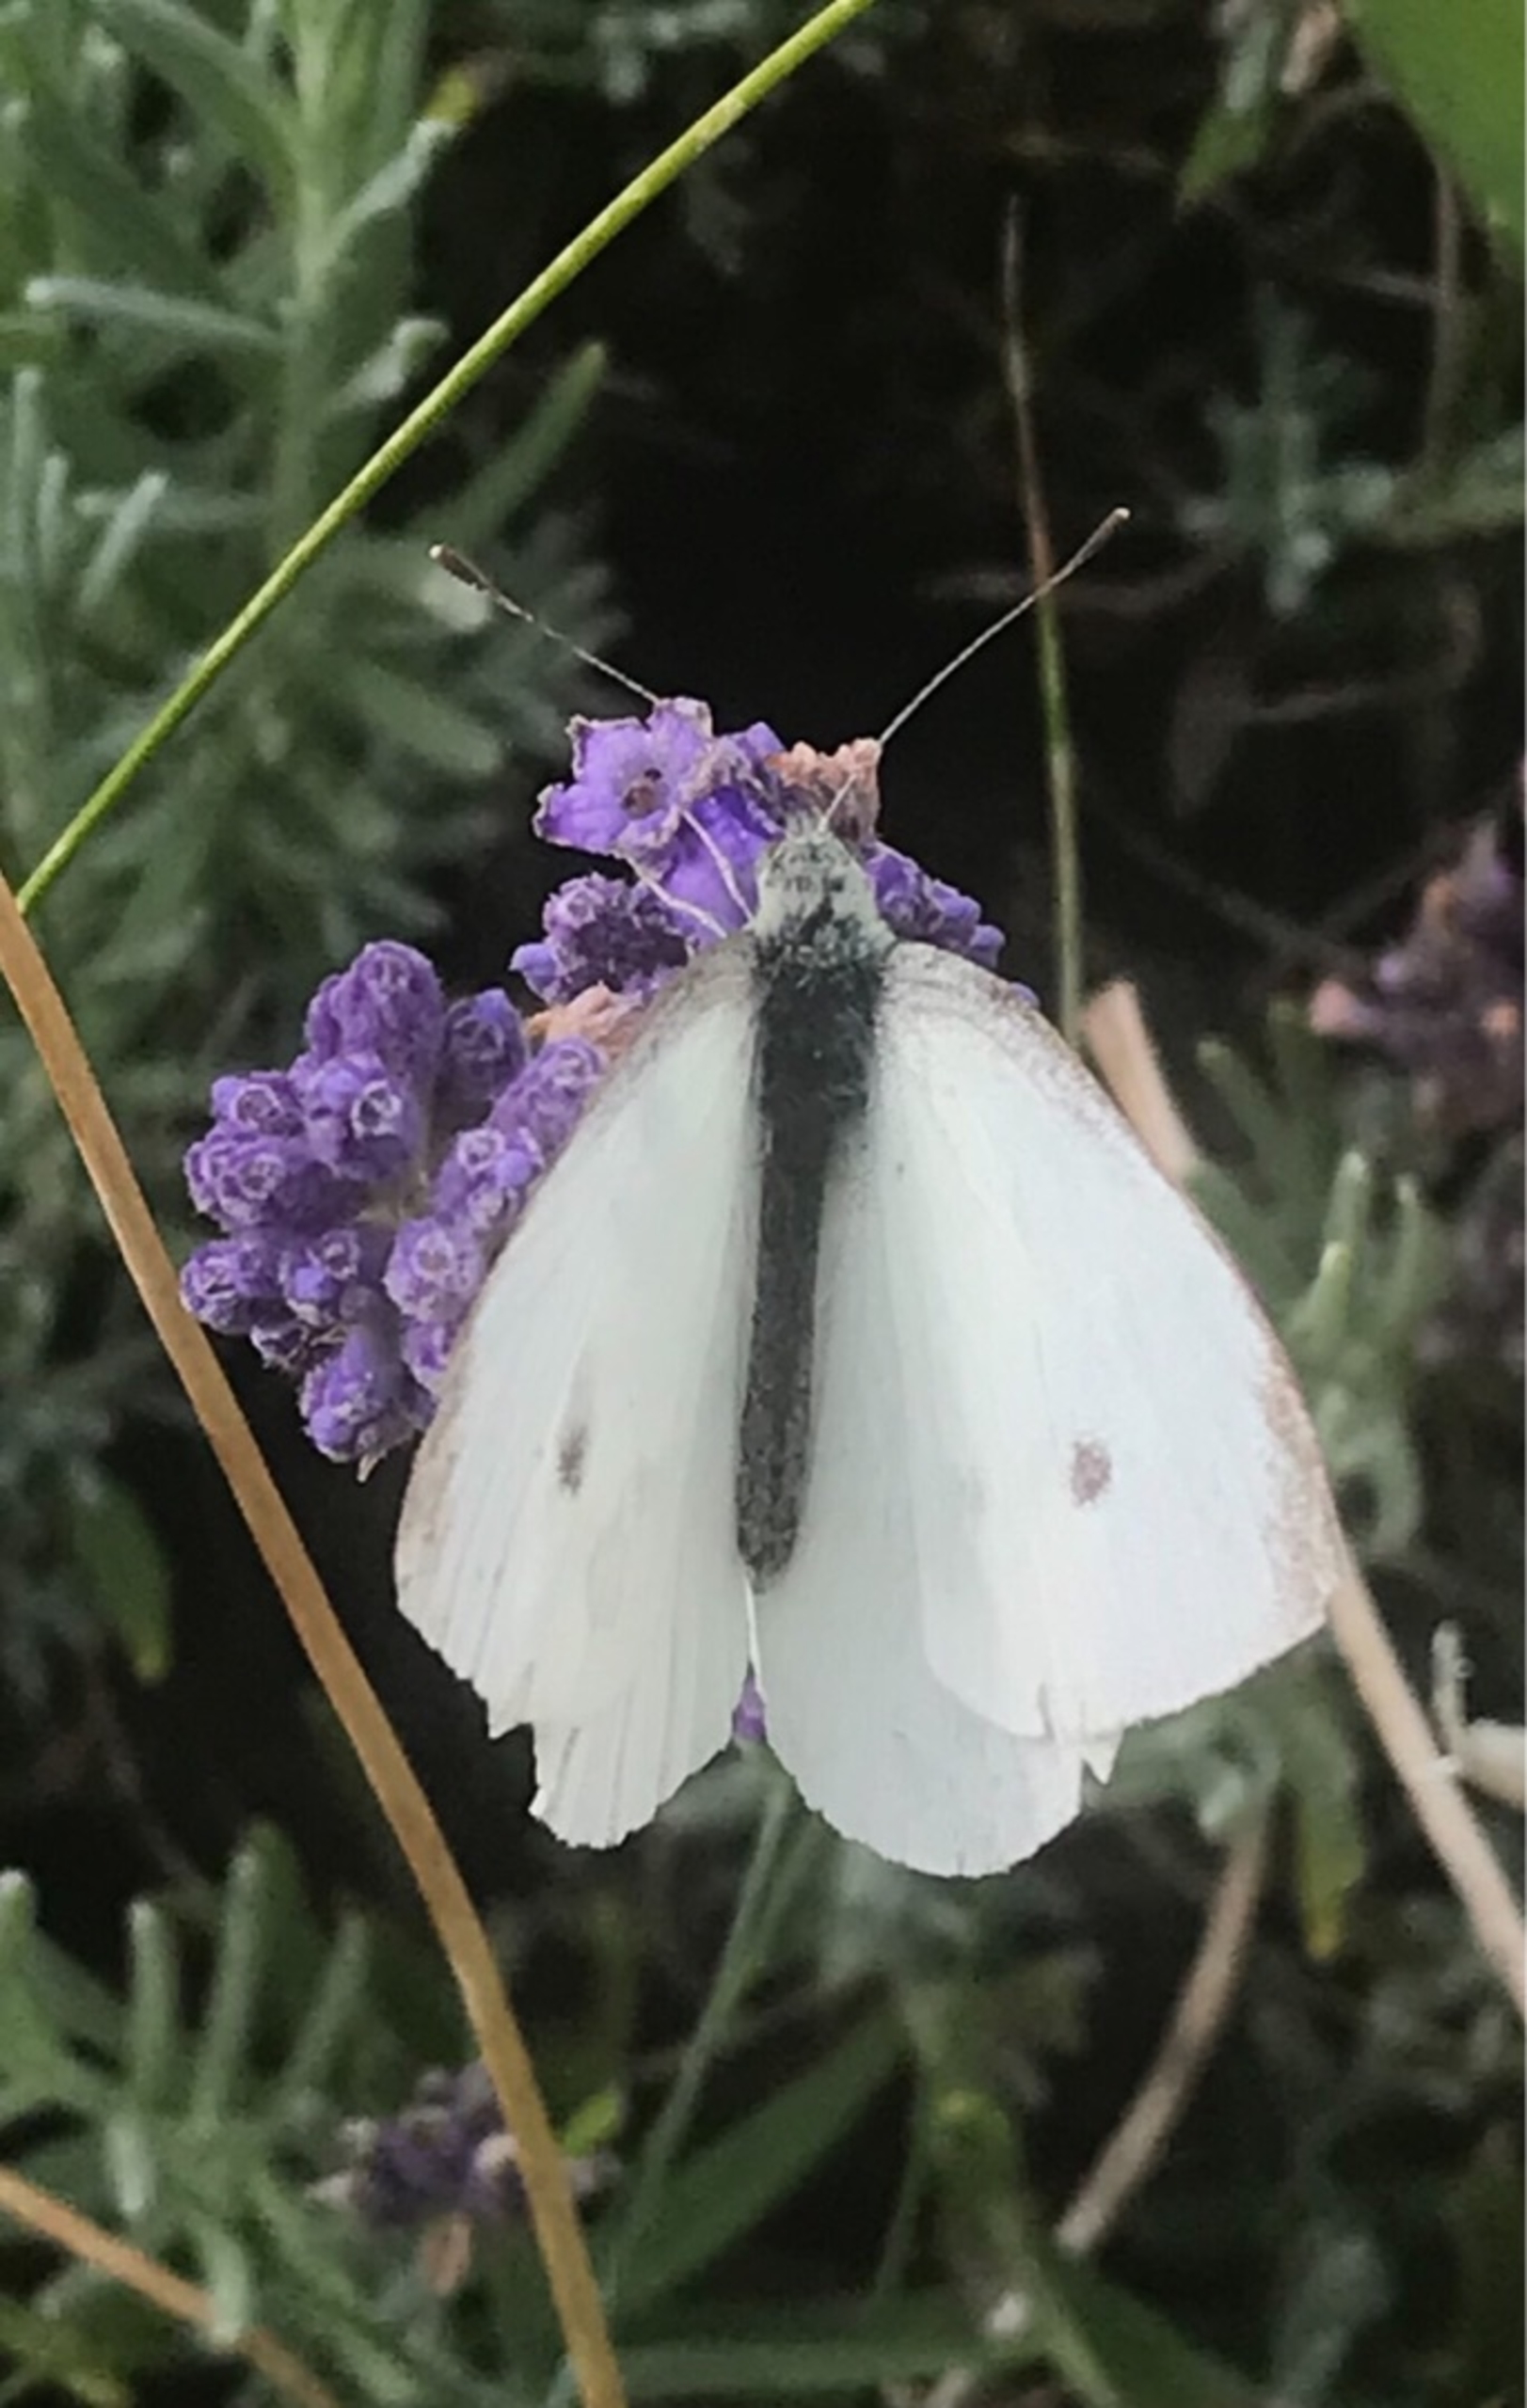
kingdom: Animalia
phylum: Arthropoda
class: Insecta
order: Lepidoptera
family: Pieridae
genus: Pieris
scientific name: Pieris rapae
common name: Lille kålsommerfugl
